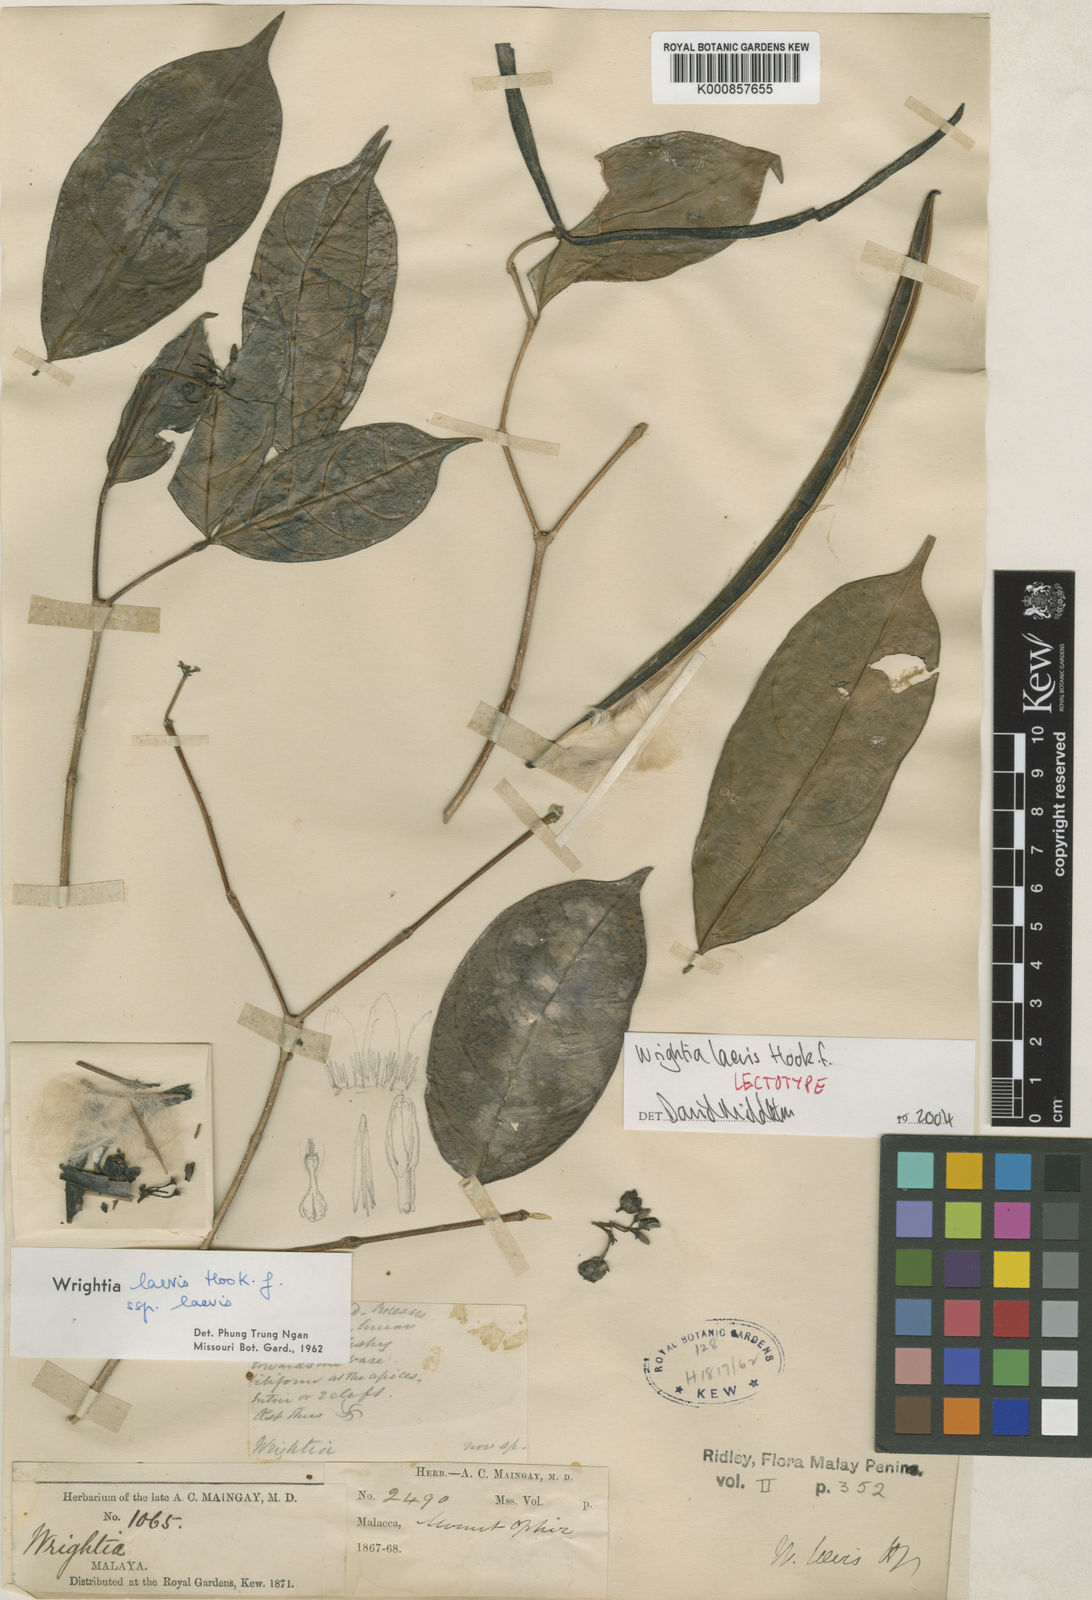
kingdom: Plantae
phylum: Tracheophyta
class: Magnoliopsida
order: Gentianales
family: Apocynaceae
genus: Wrightia
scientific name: Wrightia laevis
